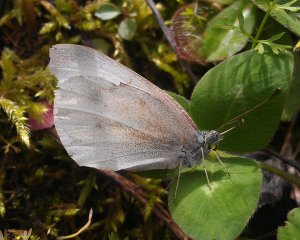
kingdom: Animalia
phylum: Arthropoda
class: Insecta
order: Lepidoptera
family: Pieridae
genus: Pieris
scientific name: Pieris rapae
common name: Cabbage White
